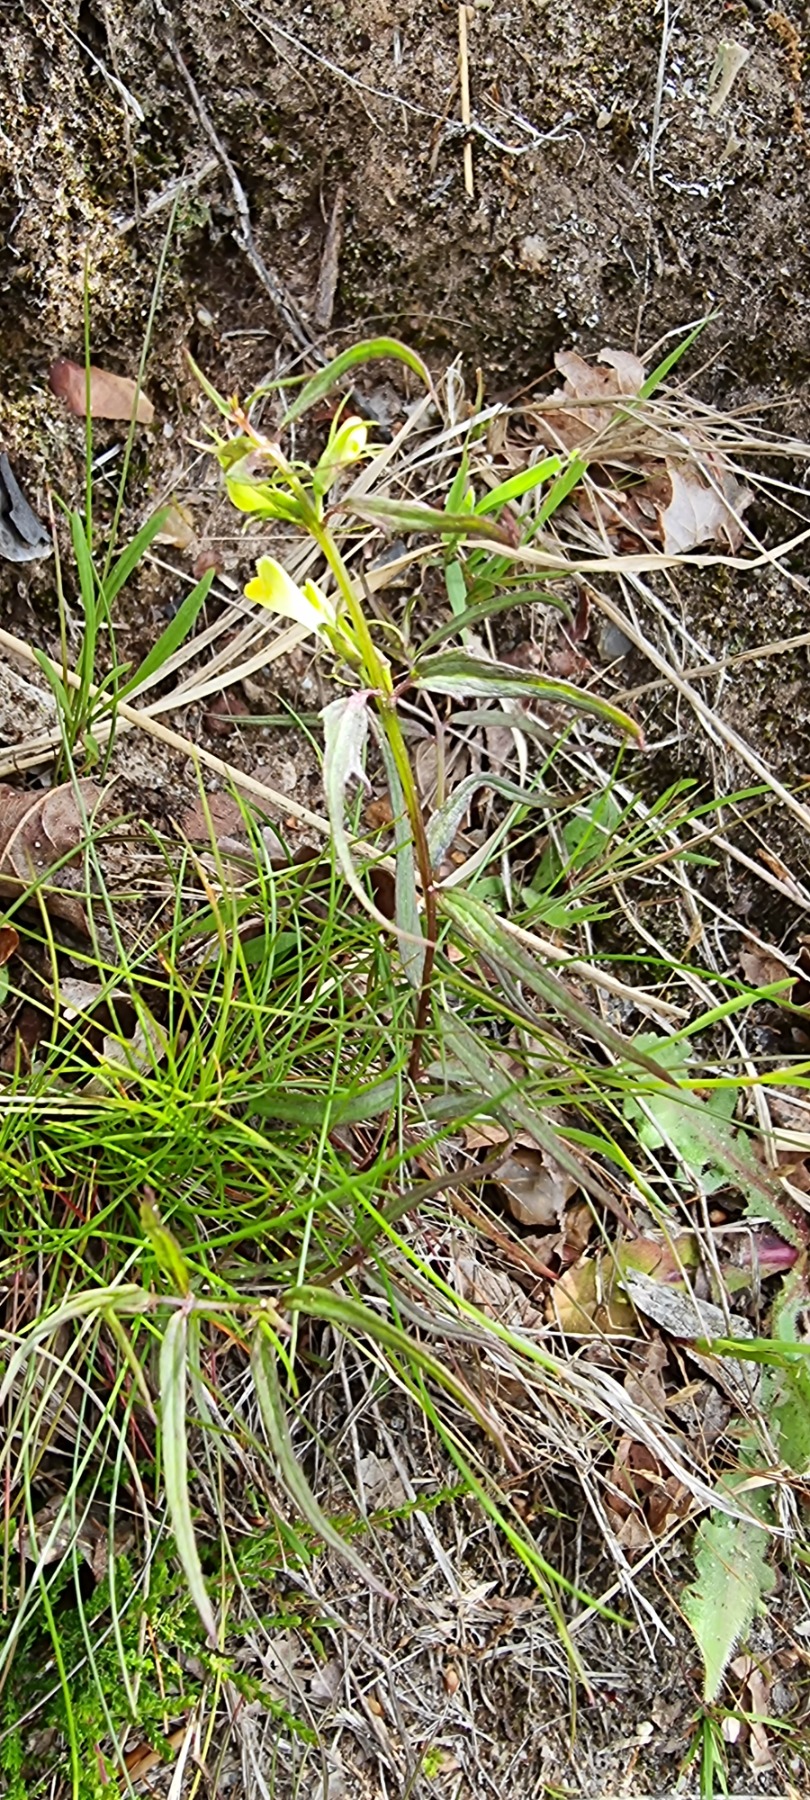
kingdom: Plantae
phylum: Tracheophyta
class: Magnoliopsida
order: Lamiales
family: Orobanchaceae
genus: Melampyrum
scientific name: Melampyrum pratense
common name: Almindelig kohvede
